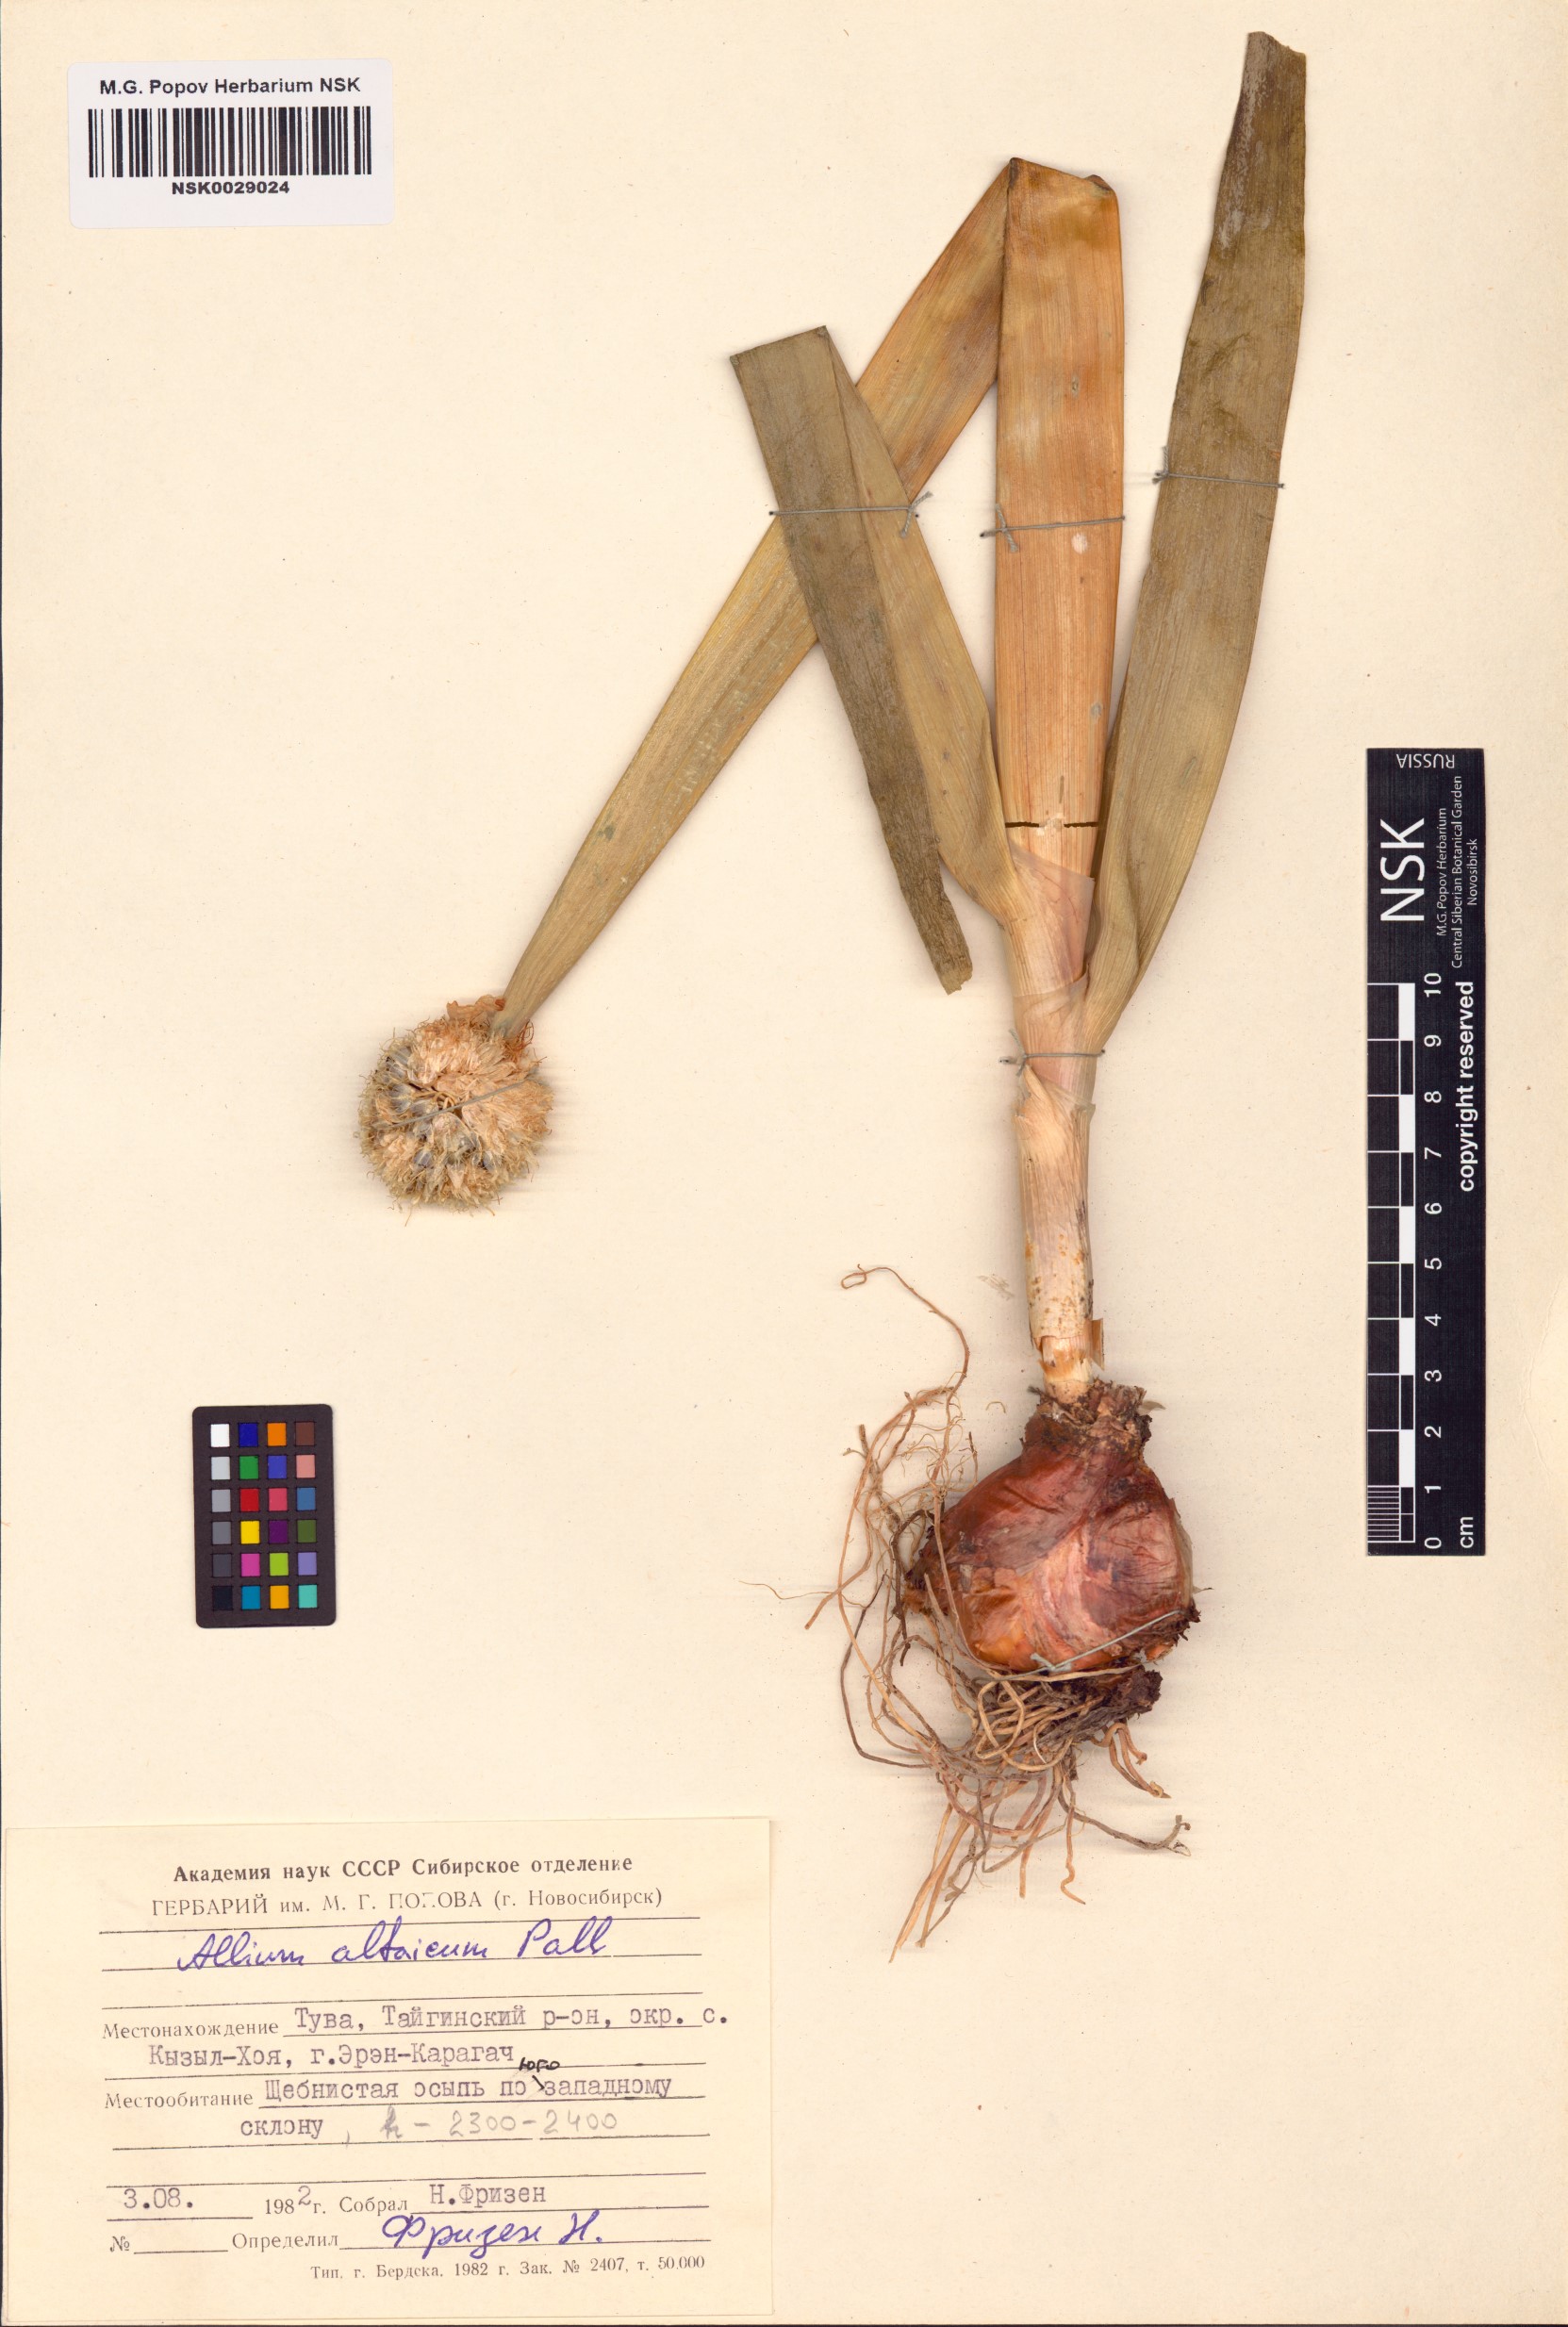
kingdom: Plantae
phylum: Tracheophyta
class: Liliopsida
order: Asparagales
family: Amaryllidaceae
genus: Allium
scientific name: Allium altaicum
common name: Altai onion
